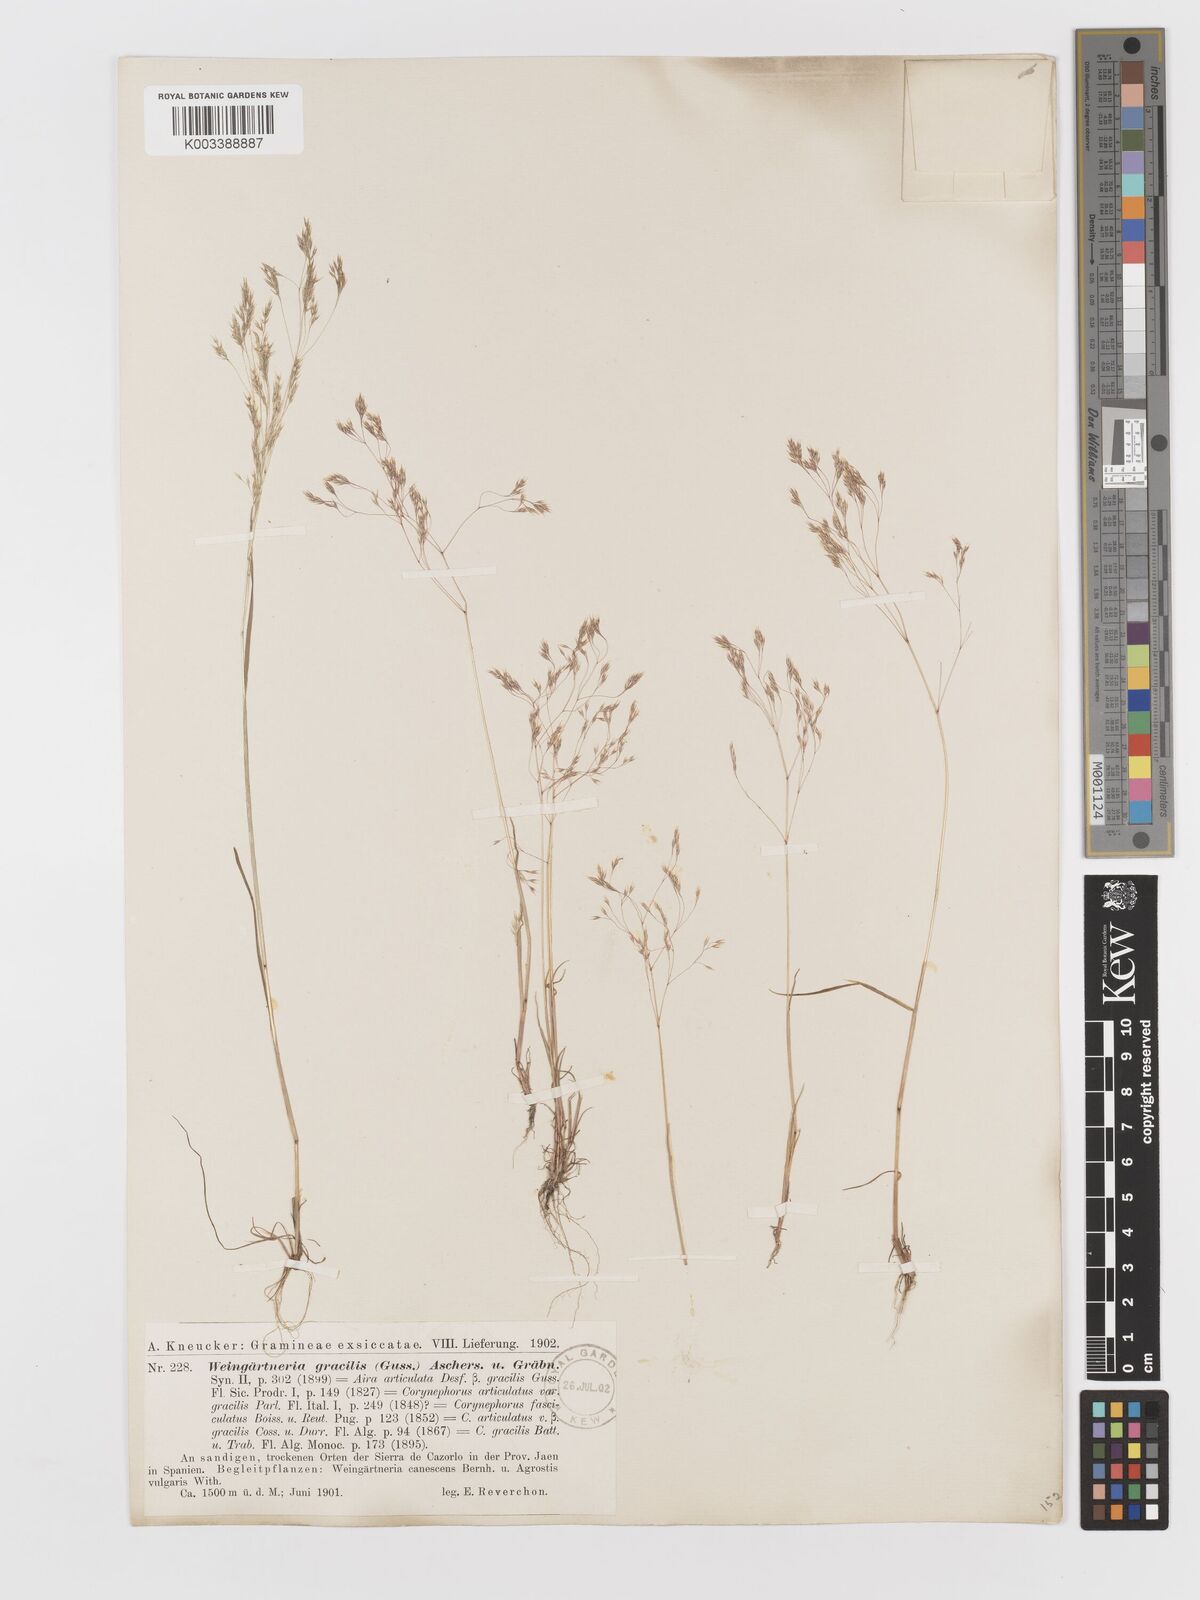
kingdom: Plantae
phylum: Tracheophyta
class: Liliopsida
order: Poales
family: Poaceae
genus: Corynephorus
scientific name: Corynephorus fasciculatus
